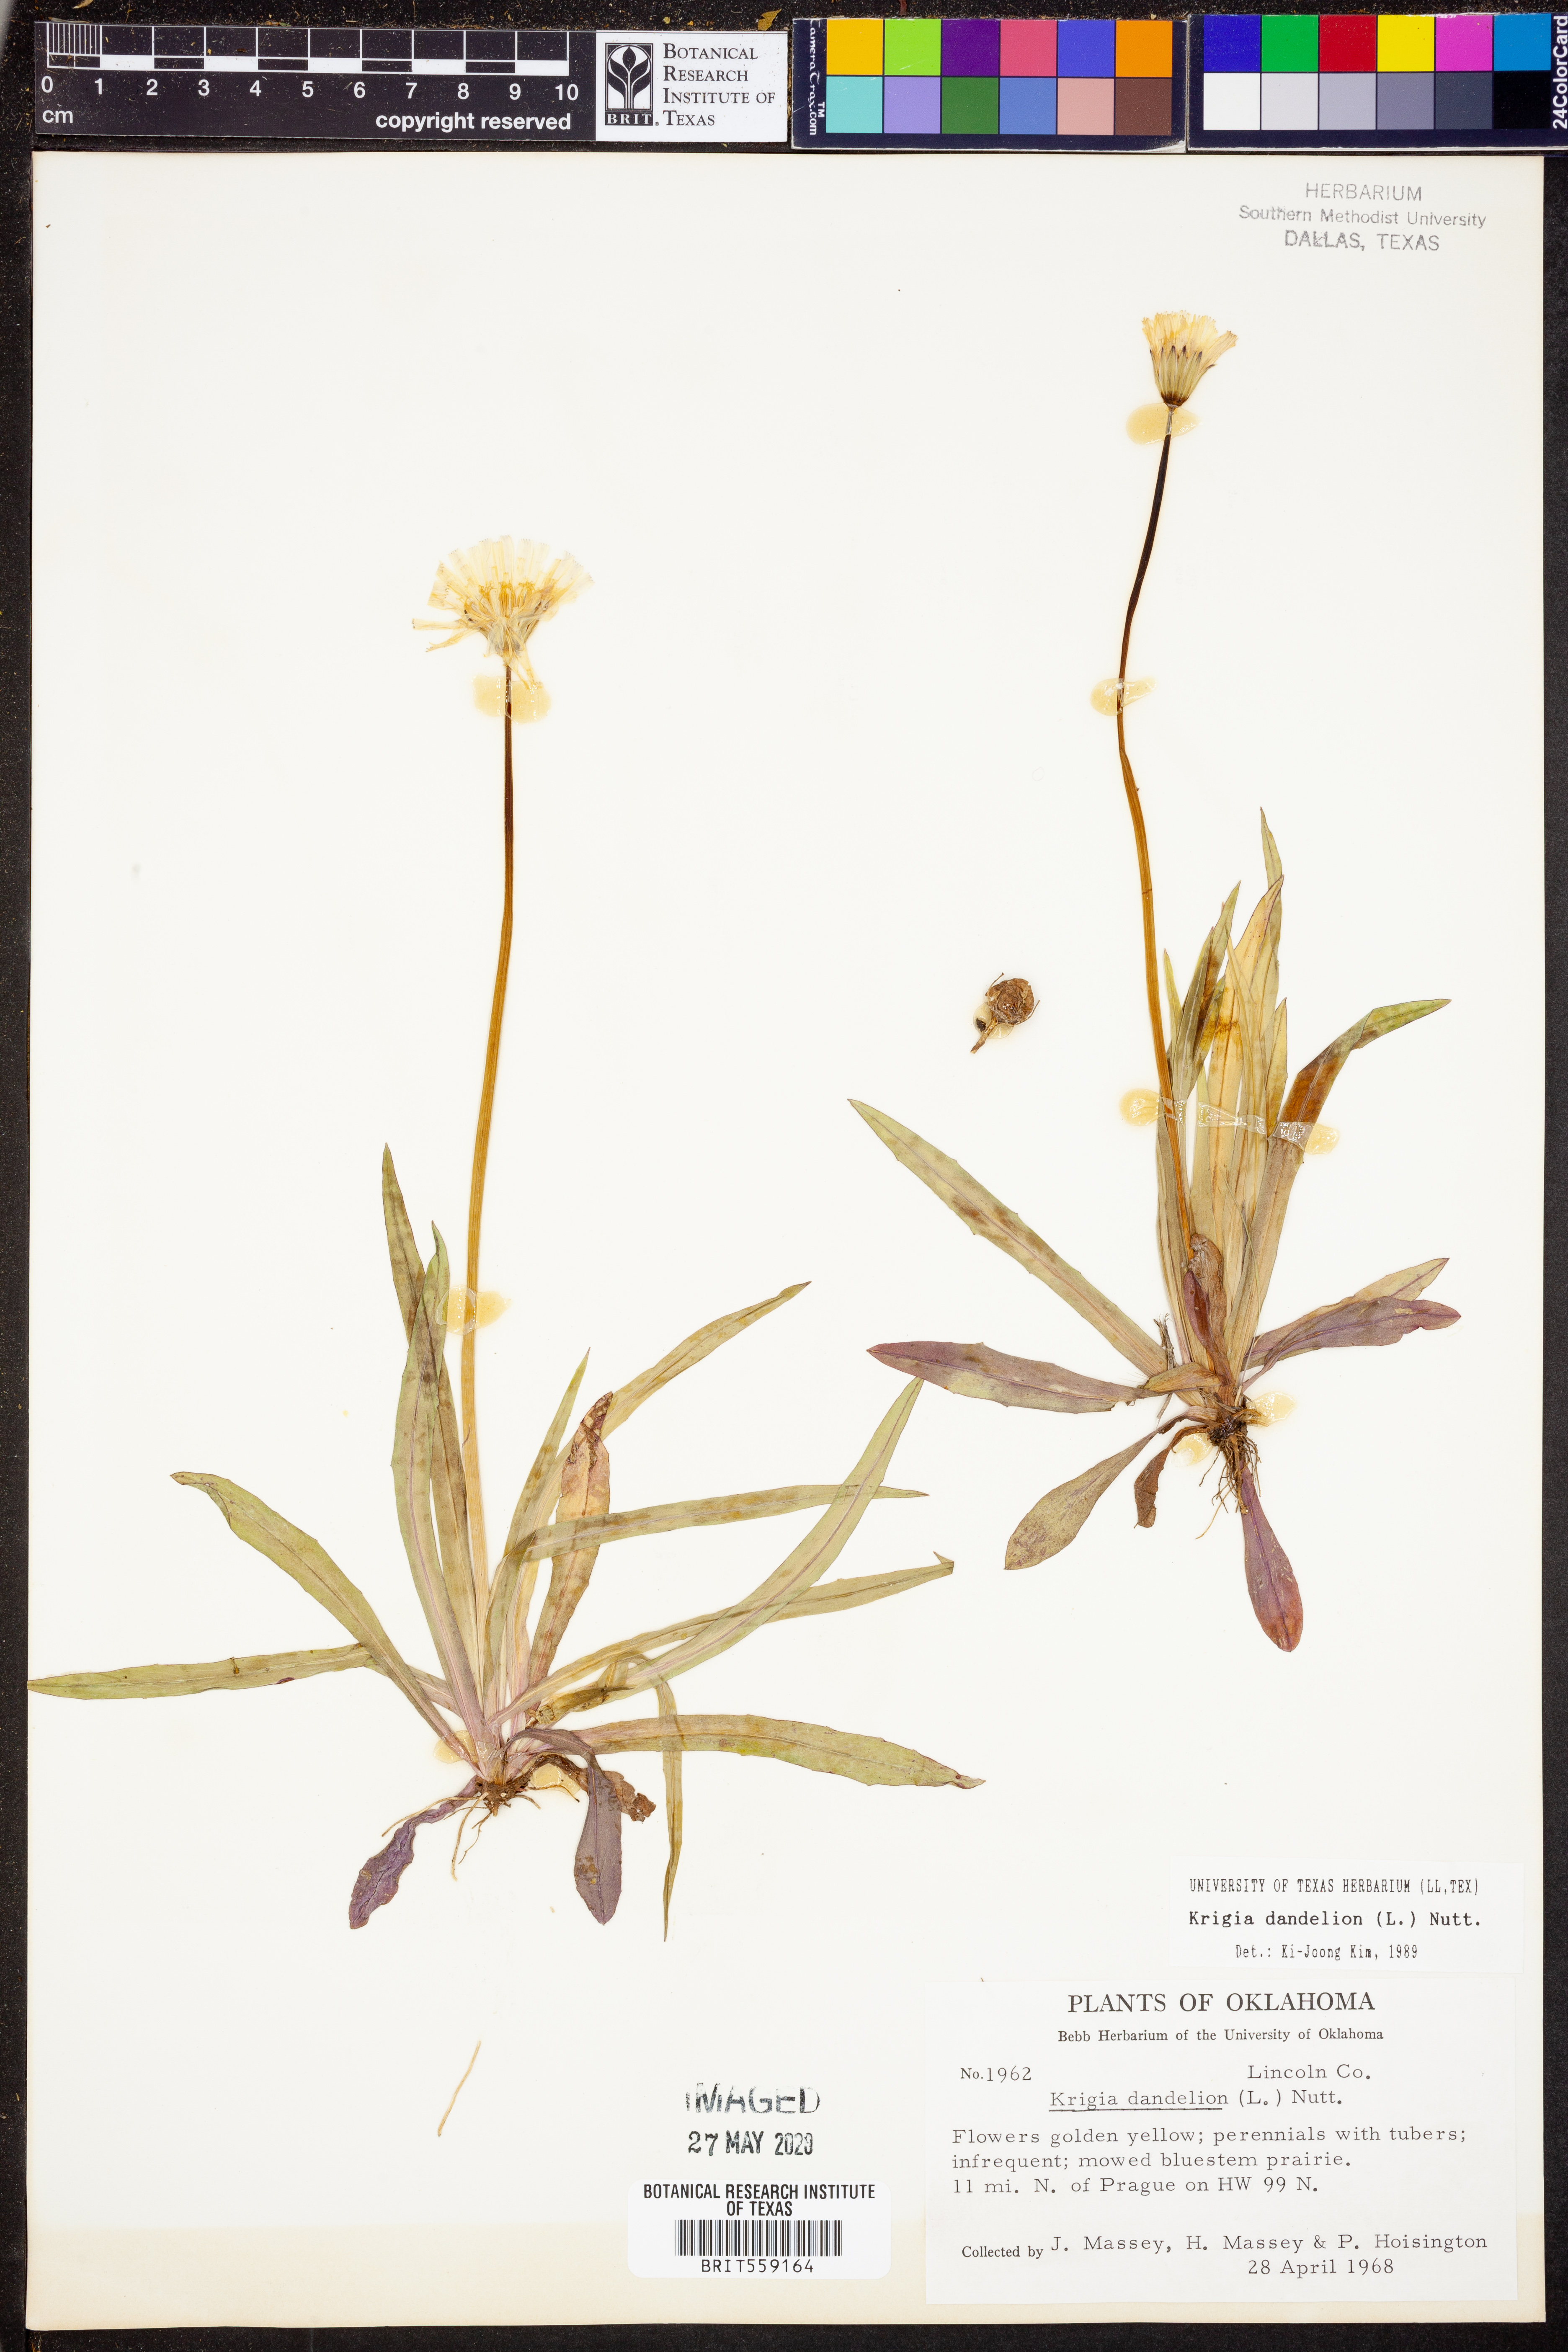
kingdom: Plantae
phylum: Tracheophyta
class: Magnoliopsida
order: Asterales
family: Asteraceae
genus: Krigia
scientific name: Krigia dandelion
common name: Colonial dwarf-dandelion
